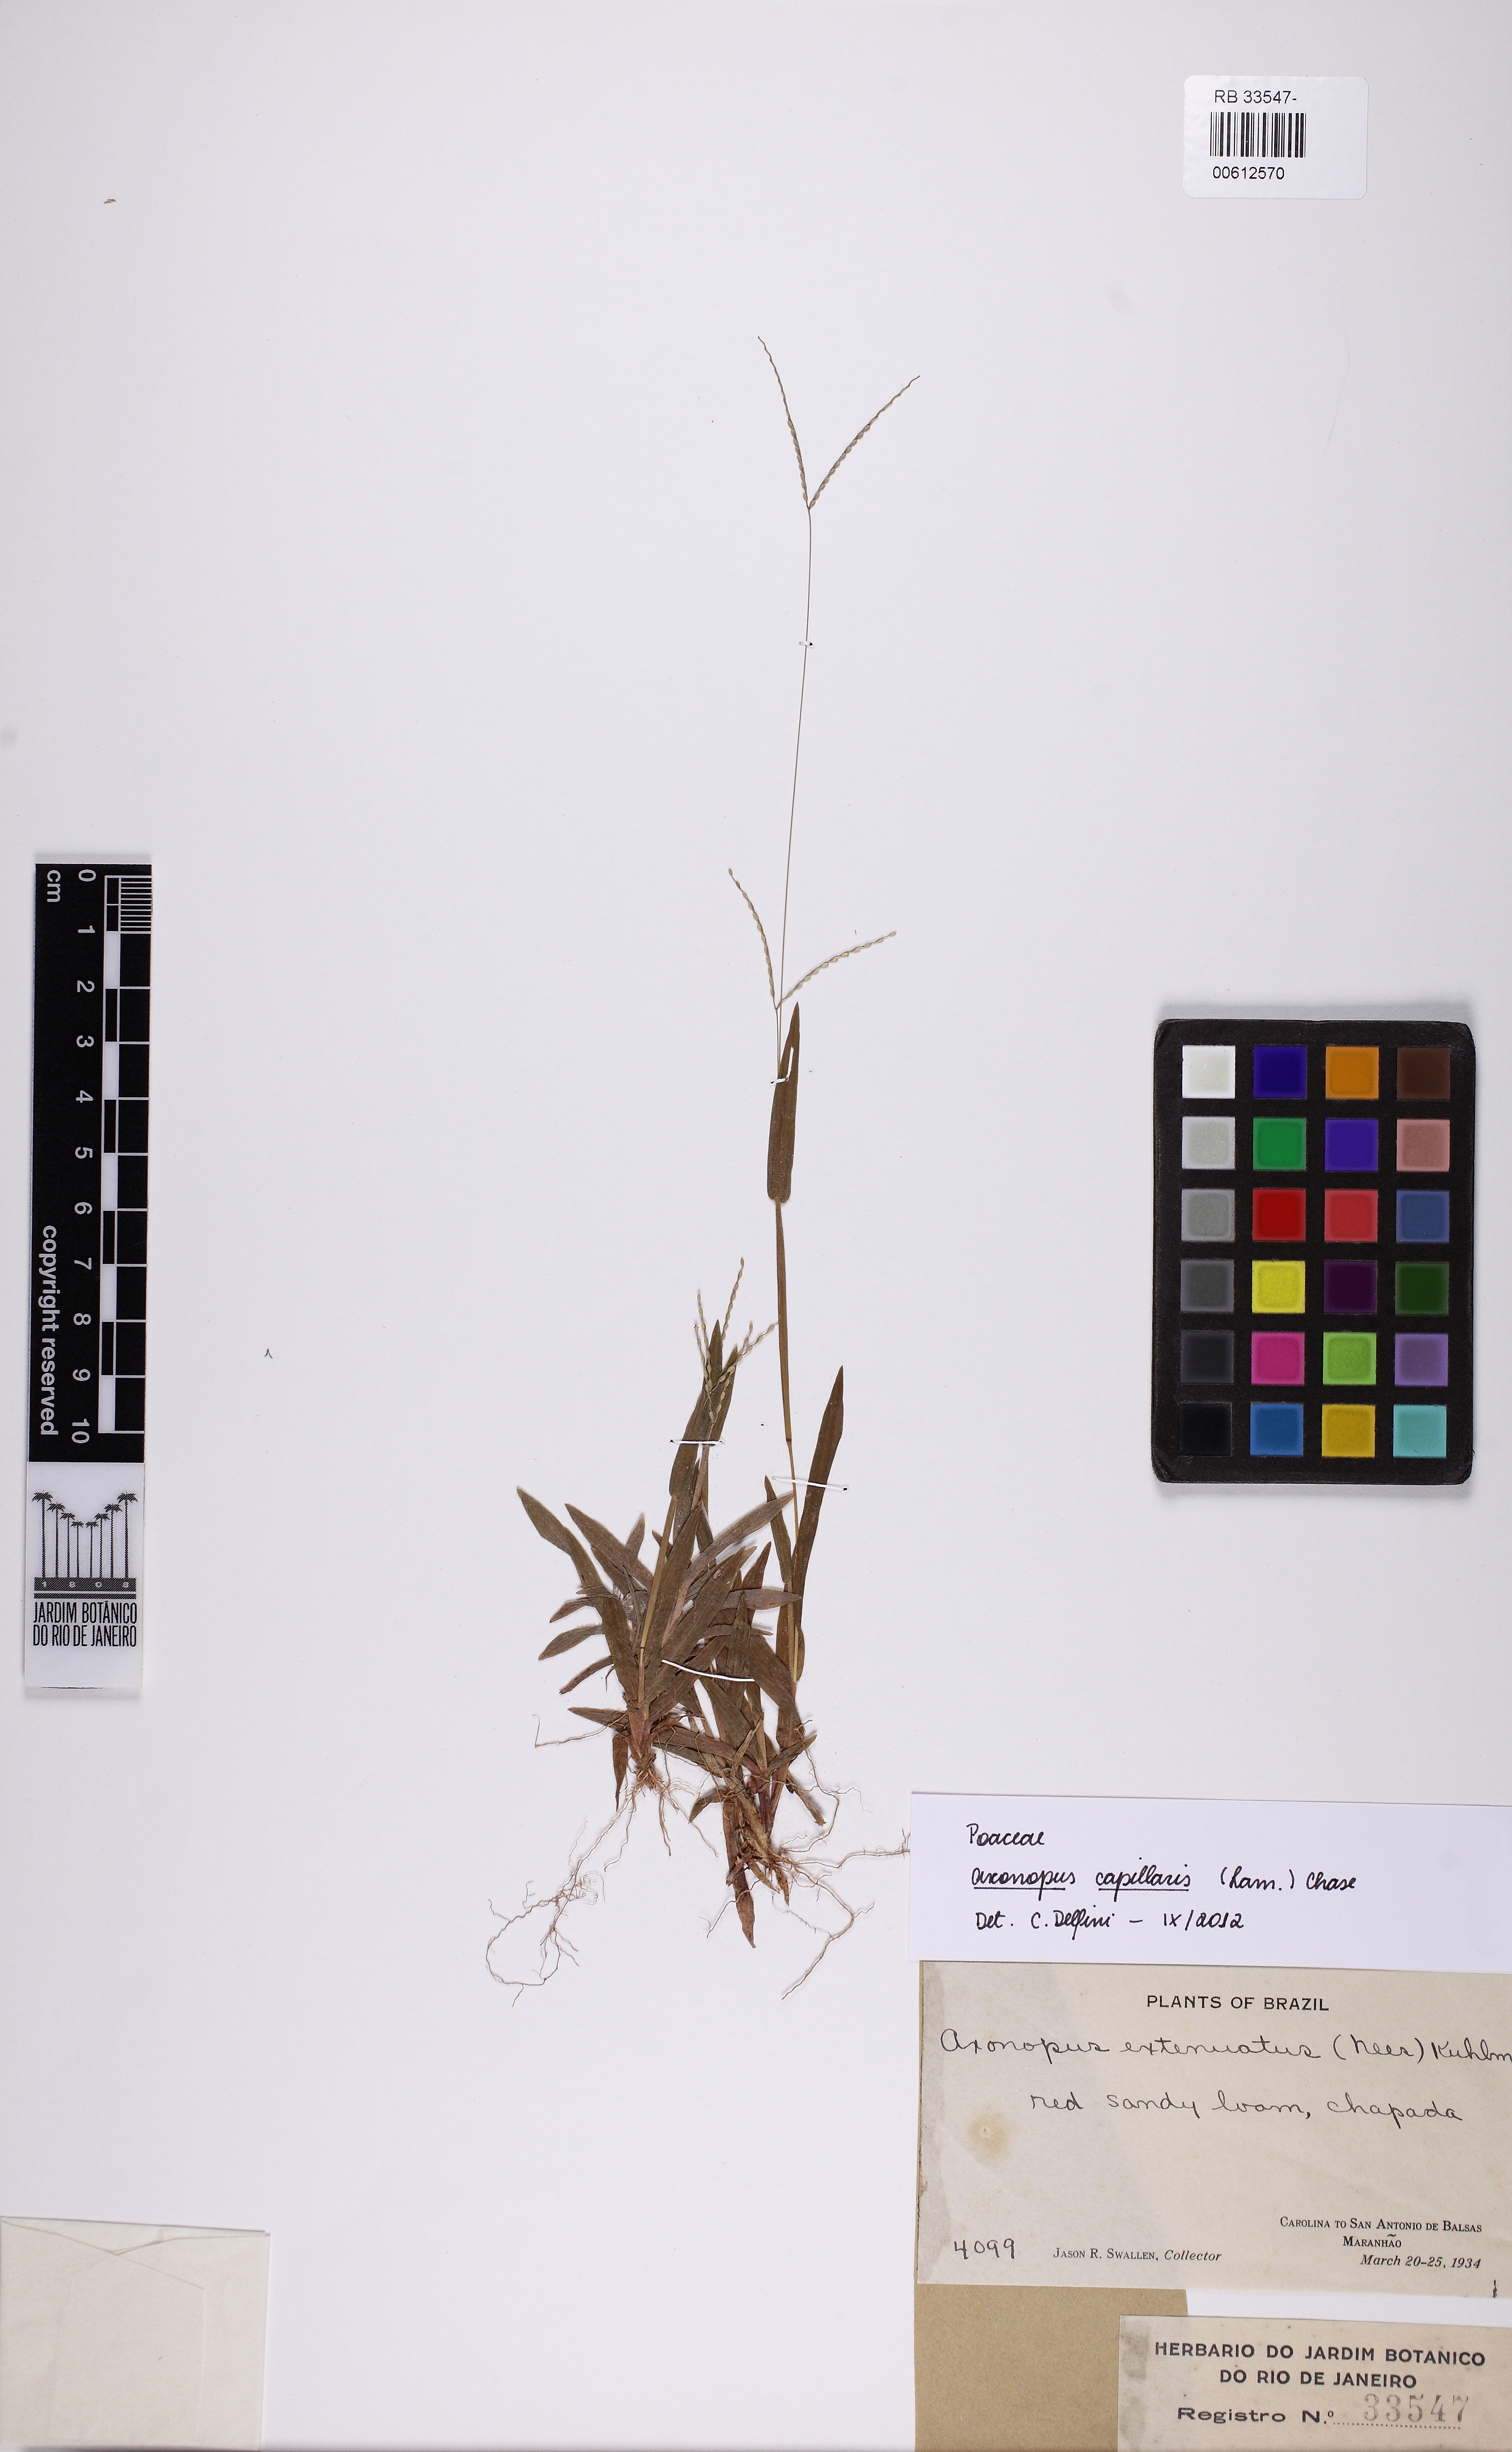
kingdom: Plantae
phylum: Tracheophyta
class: Liliopsida
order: Poales
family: Poaceae
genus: Axonopus
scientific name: Axonopus capillaris
